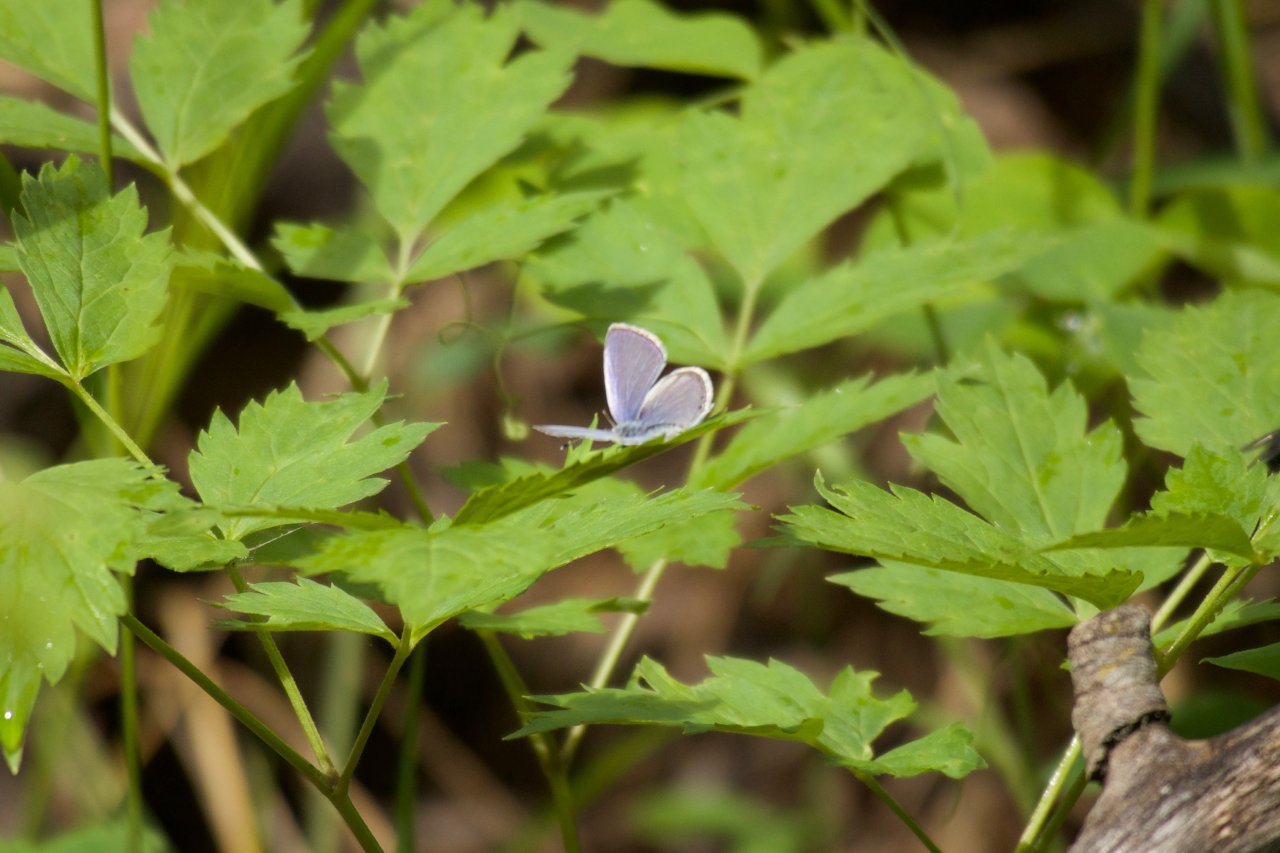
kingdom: Animalia
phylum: Arthropoda
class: Insecta
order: Lepidoptera
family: Lycaenidae
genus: Elkalyce
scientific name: Elkalyce amyntula
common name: Western Tailed-Blue
